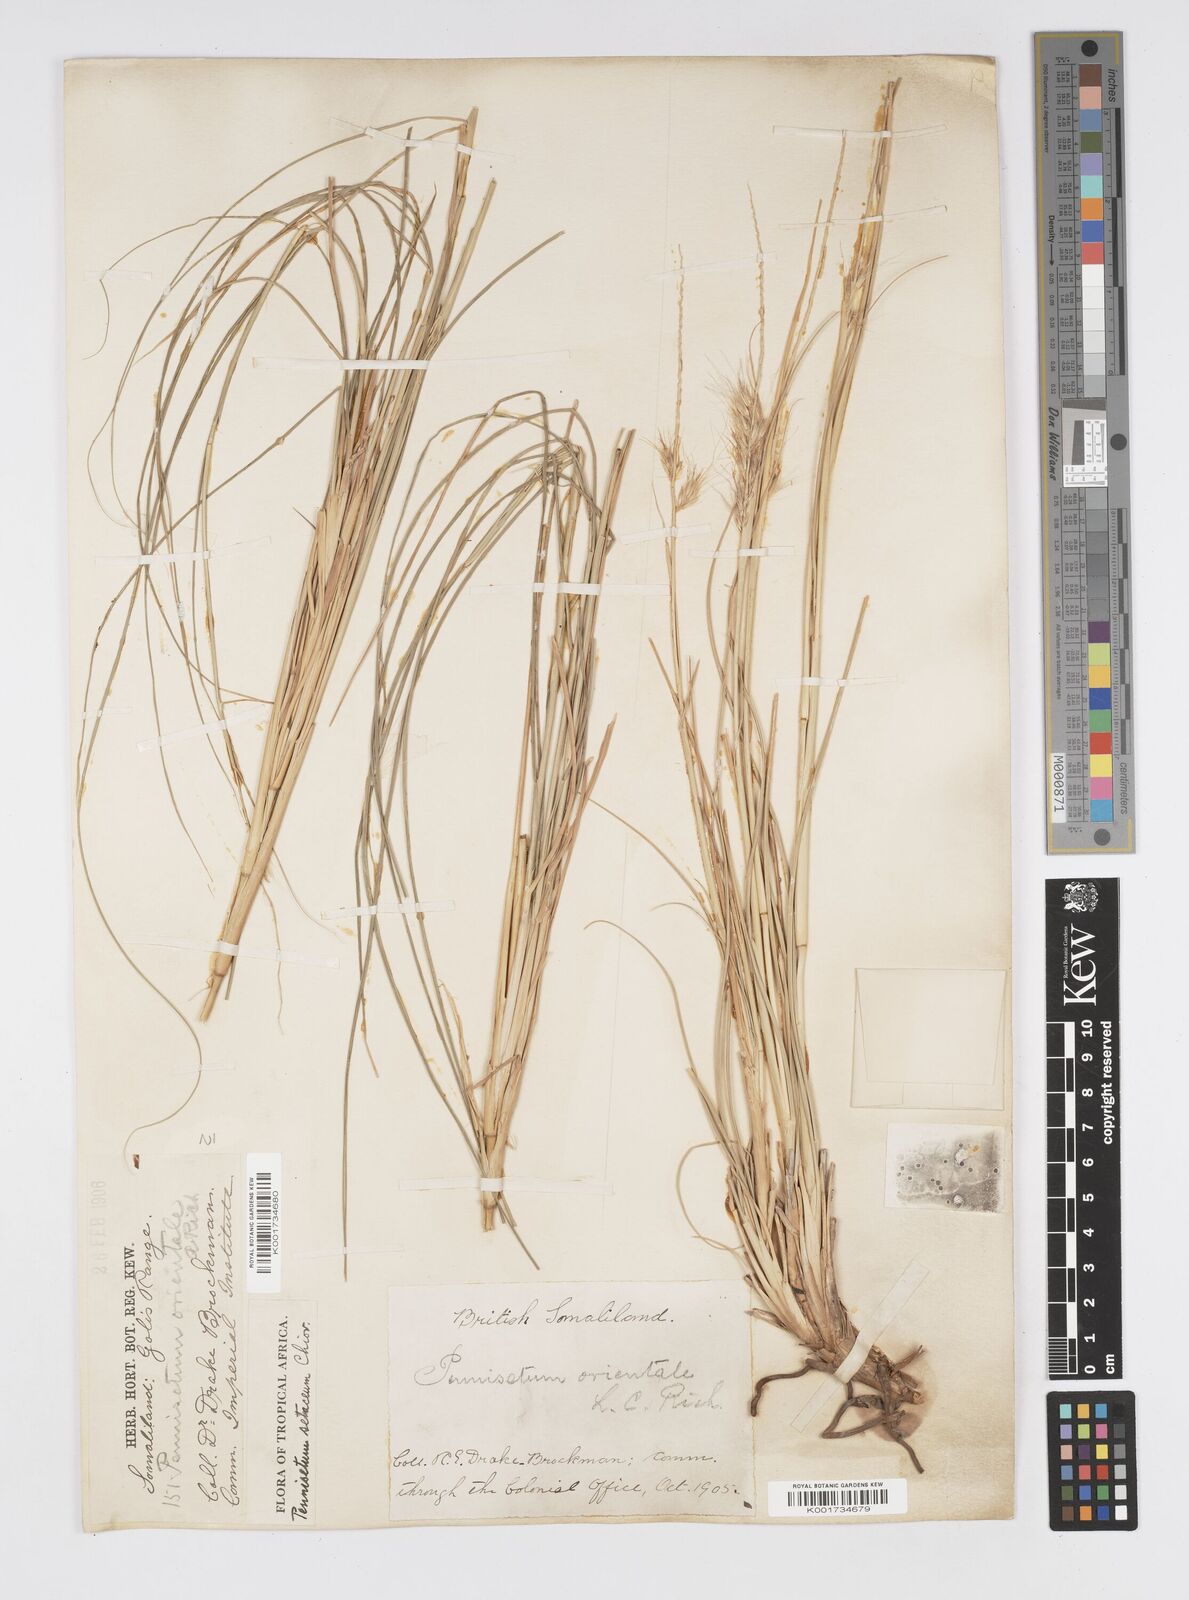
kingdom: Plantae
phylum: Tracheophyta
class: Liliopsida
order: Poales
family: Poaceae
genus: Cenchrus
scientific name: Cenchrus setaceus
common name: Crimson fountaingrass
